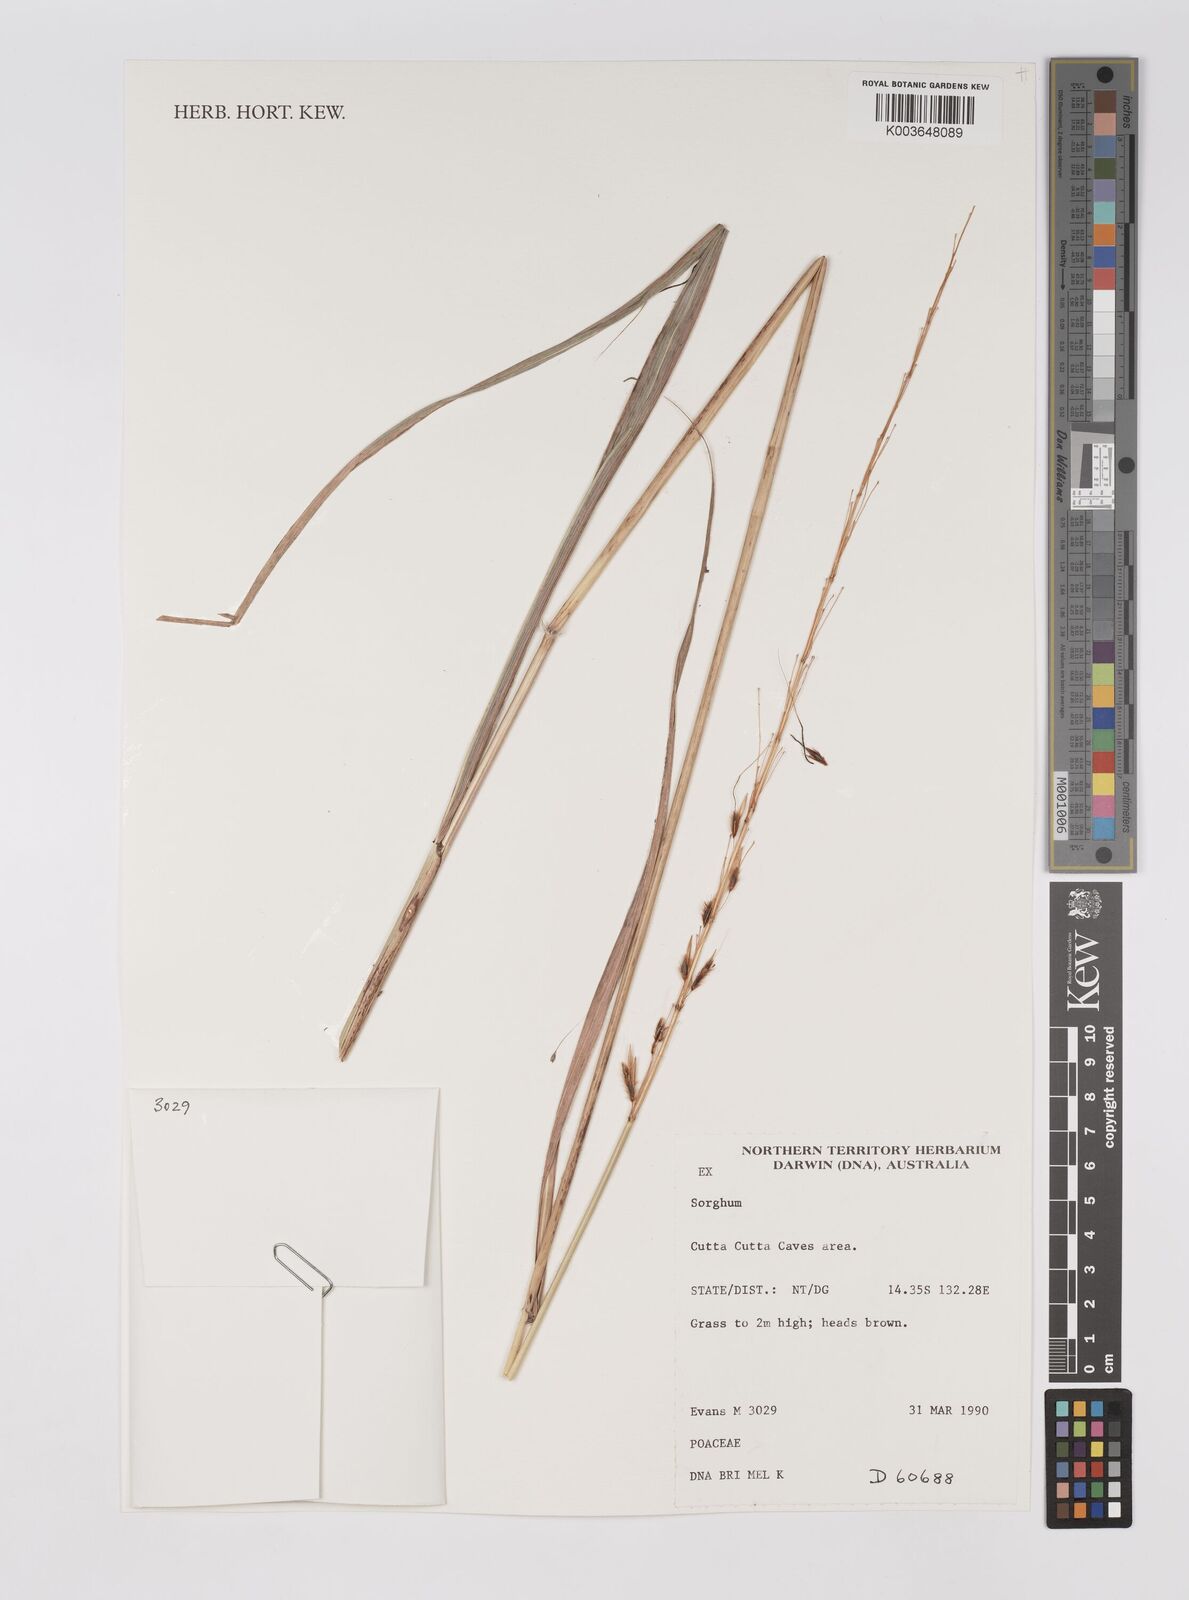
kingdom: Plantae
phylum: Tracheophyta
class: Liliopsida
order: Poales
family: Poaceae
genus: Sorghum
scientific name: Sorghum
